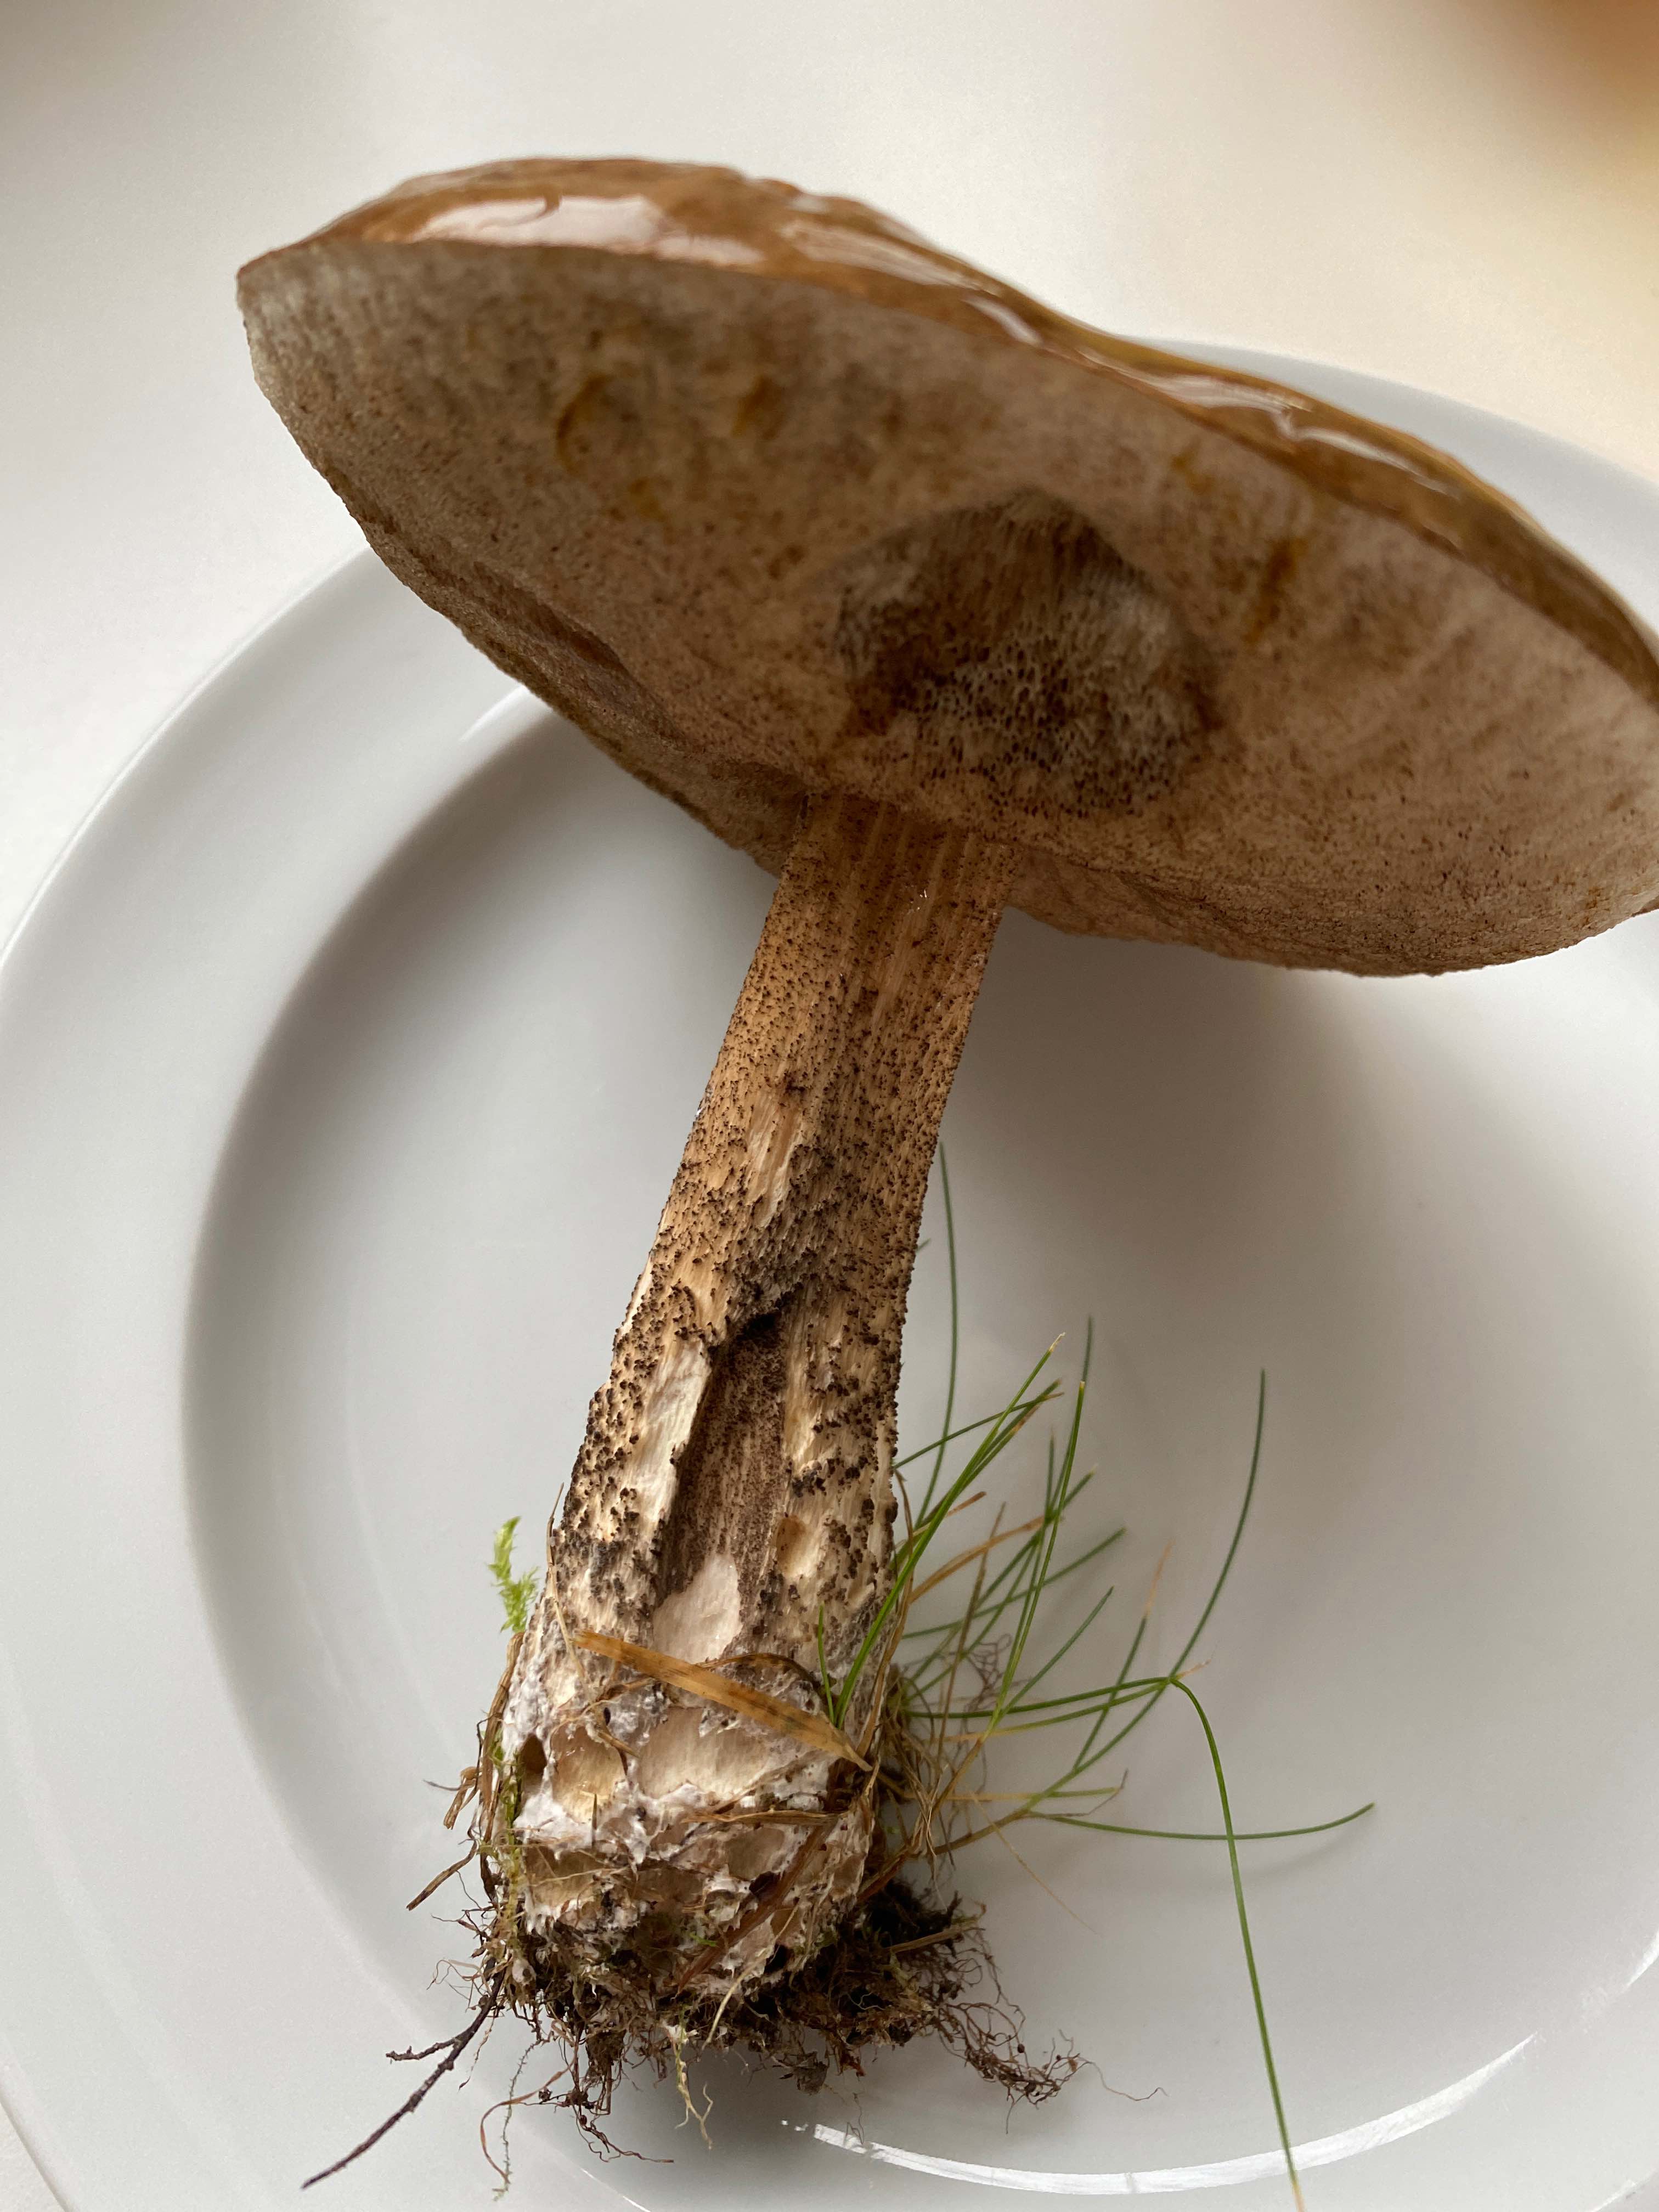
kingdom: Fungi
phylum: Basidiomycota
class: Agaricomycetes
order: Boletales
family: Boletaceae
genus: Leccinum
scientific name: Leccinum scabrum
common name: brun skælrørhat
